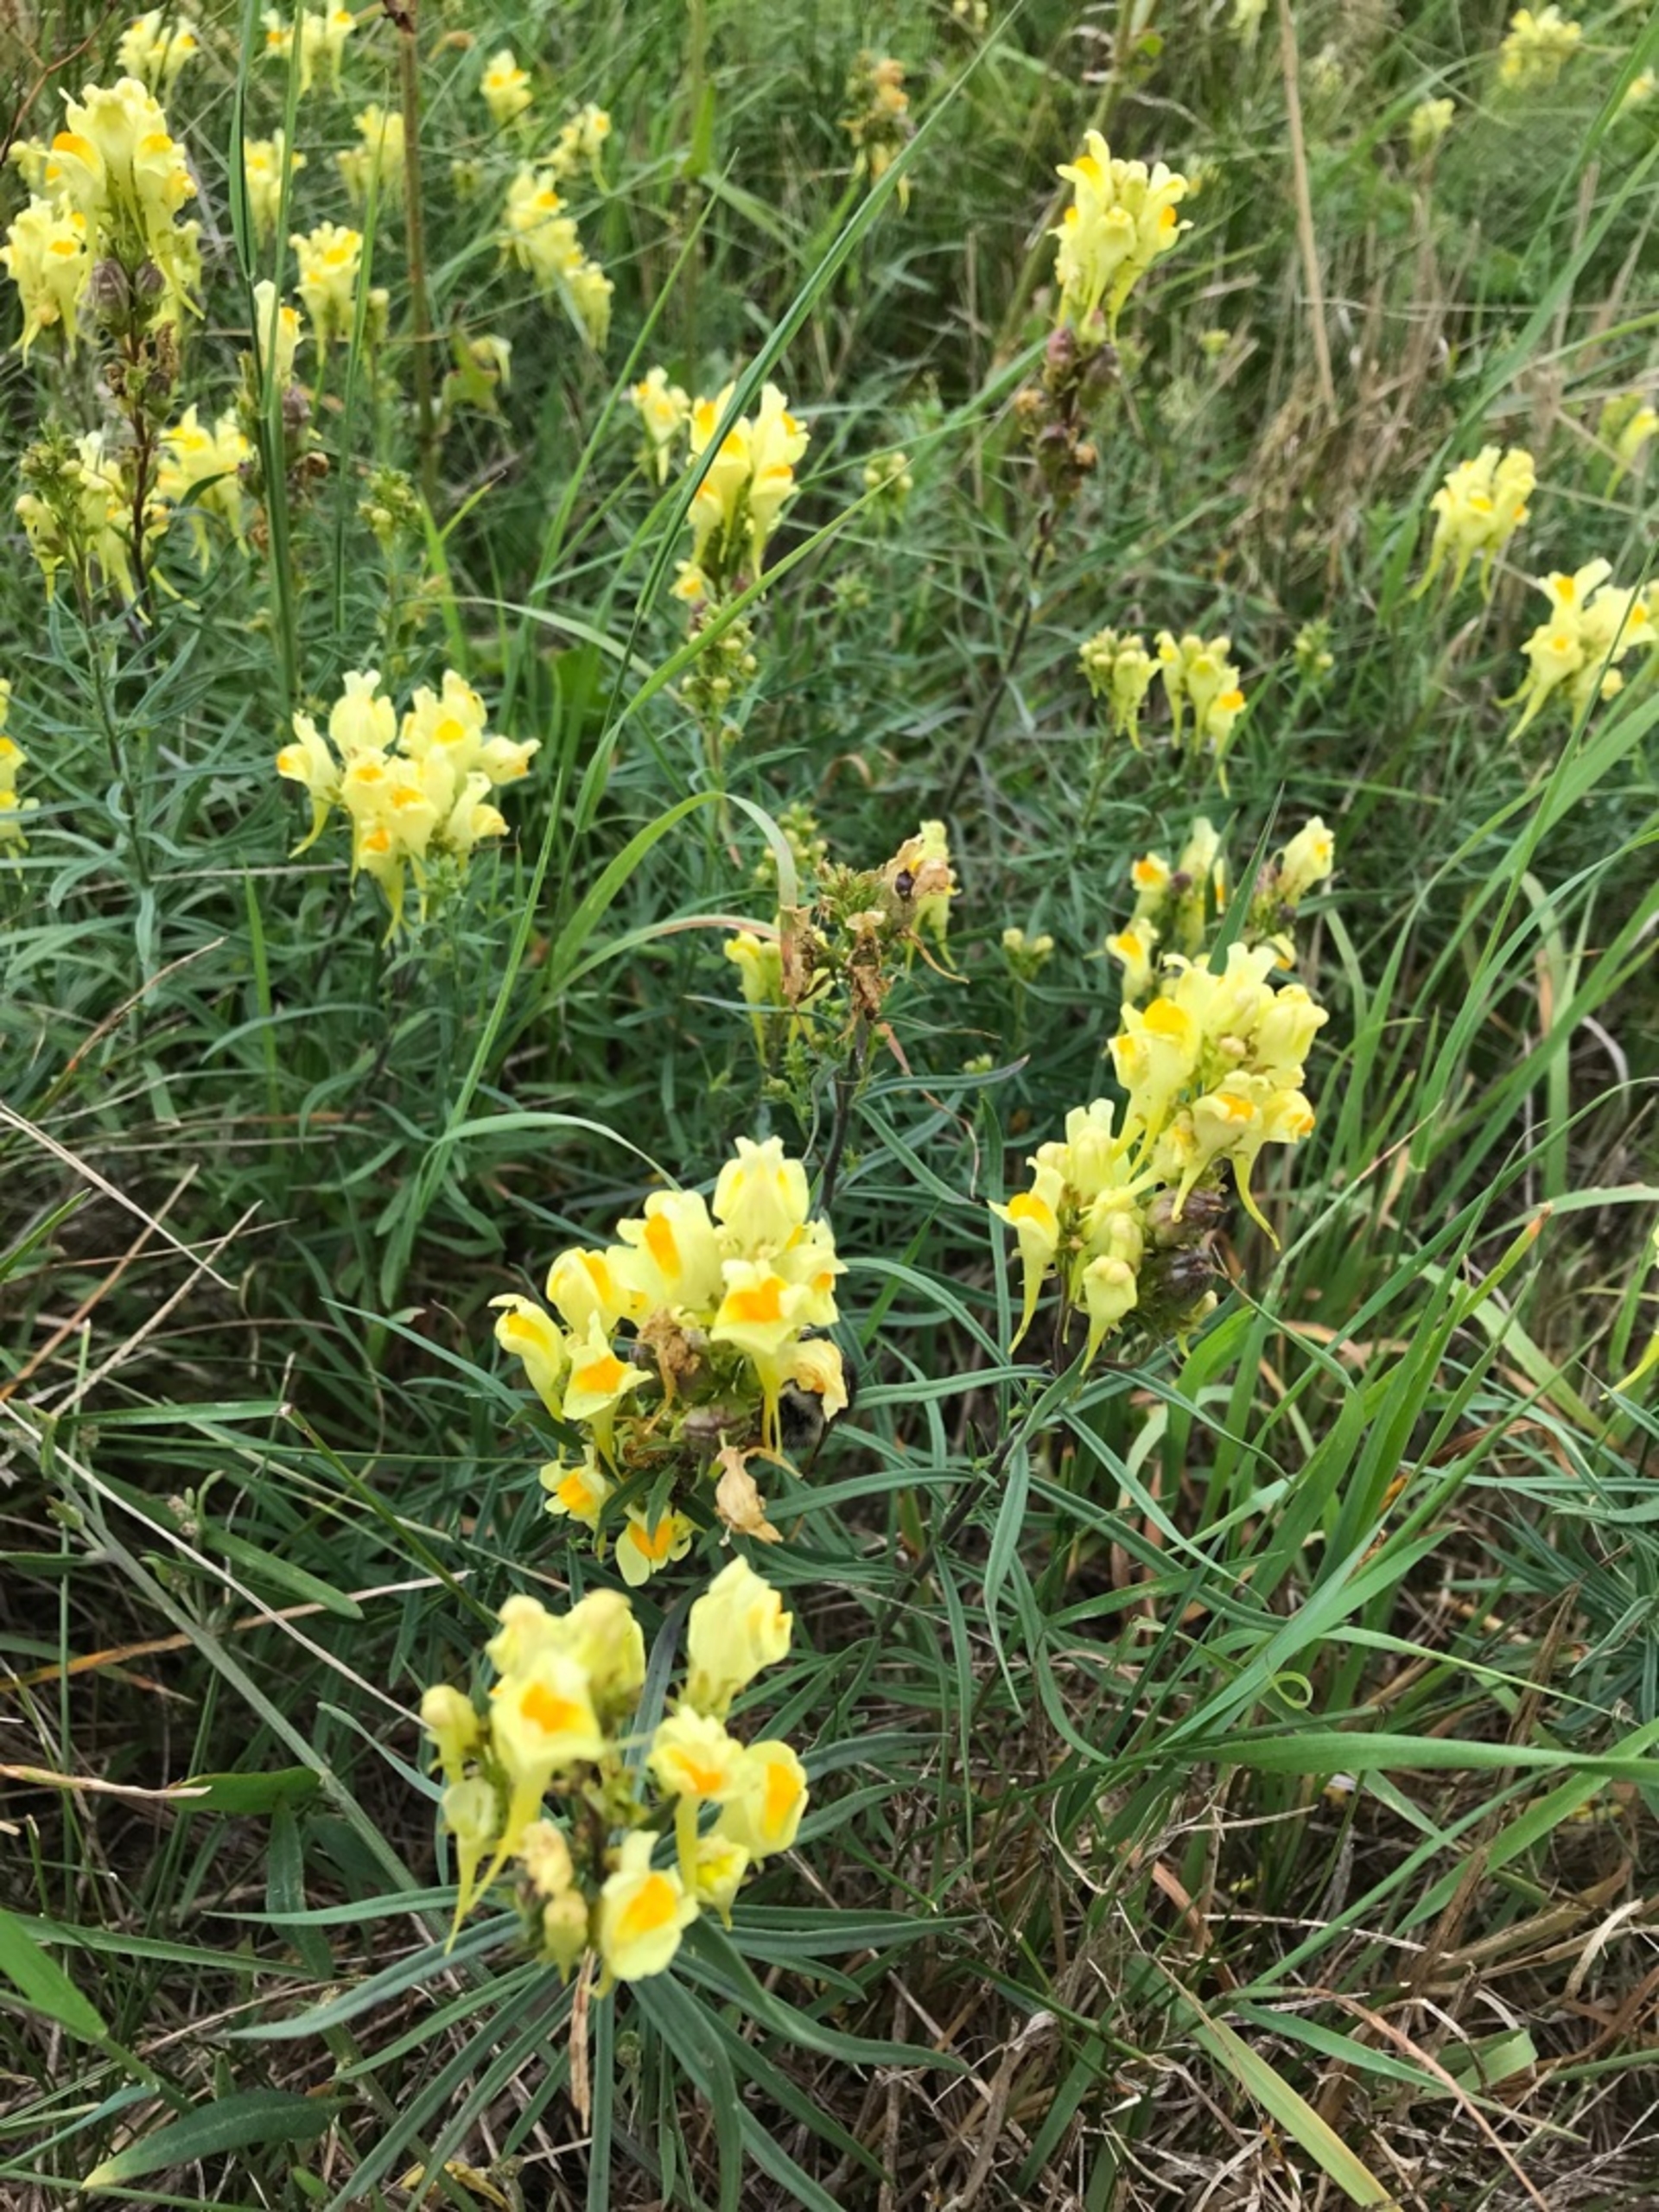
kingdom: Plantae
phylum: Tracheophyta
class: Magnoliopsida
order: Lamiales
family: Plantaginaceae
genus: Linaria
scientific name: Linaria vulgaris
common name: Almindelig torskemund
